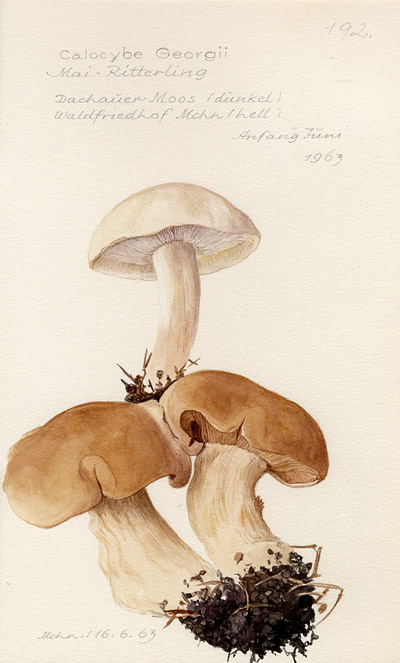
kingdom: Fungi
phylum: Basidiomycota
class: Agaricomycetes
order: Agaricales
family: Lyophyllaceae
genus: Calocybe
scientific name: Calocybe gambosa
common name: St. george's mushroom
